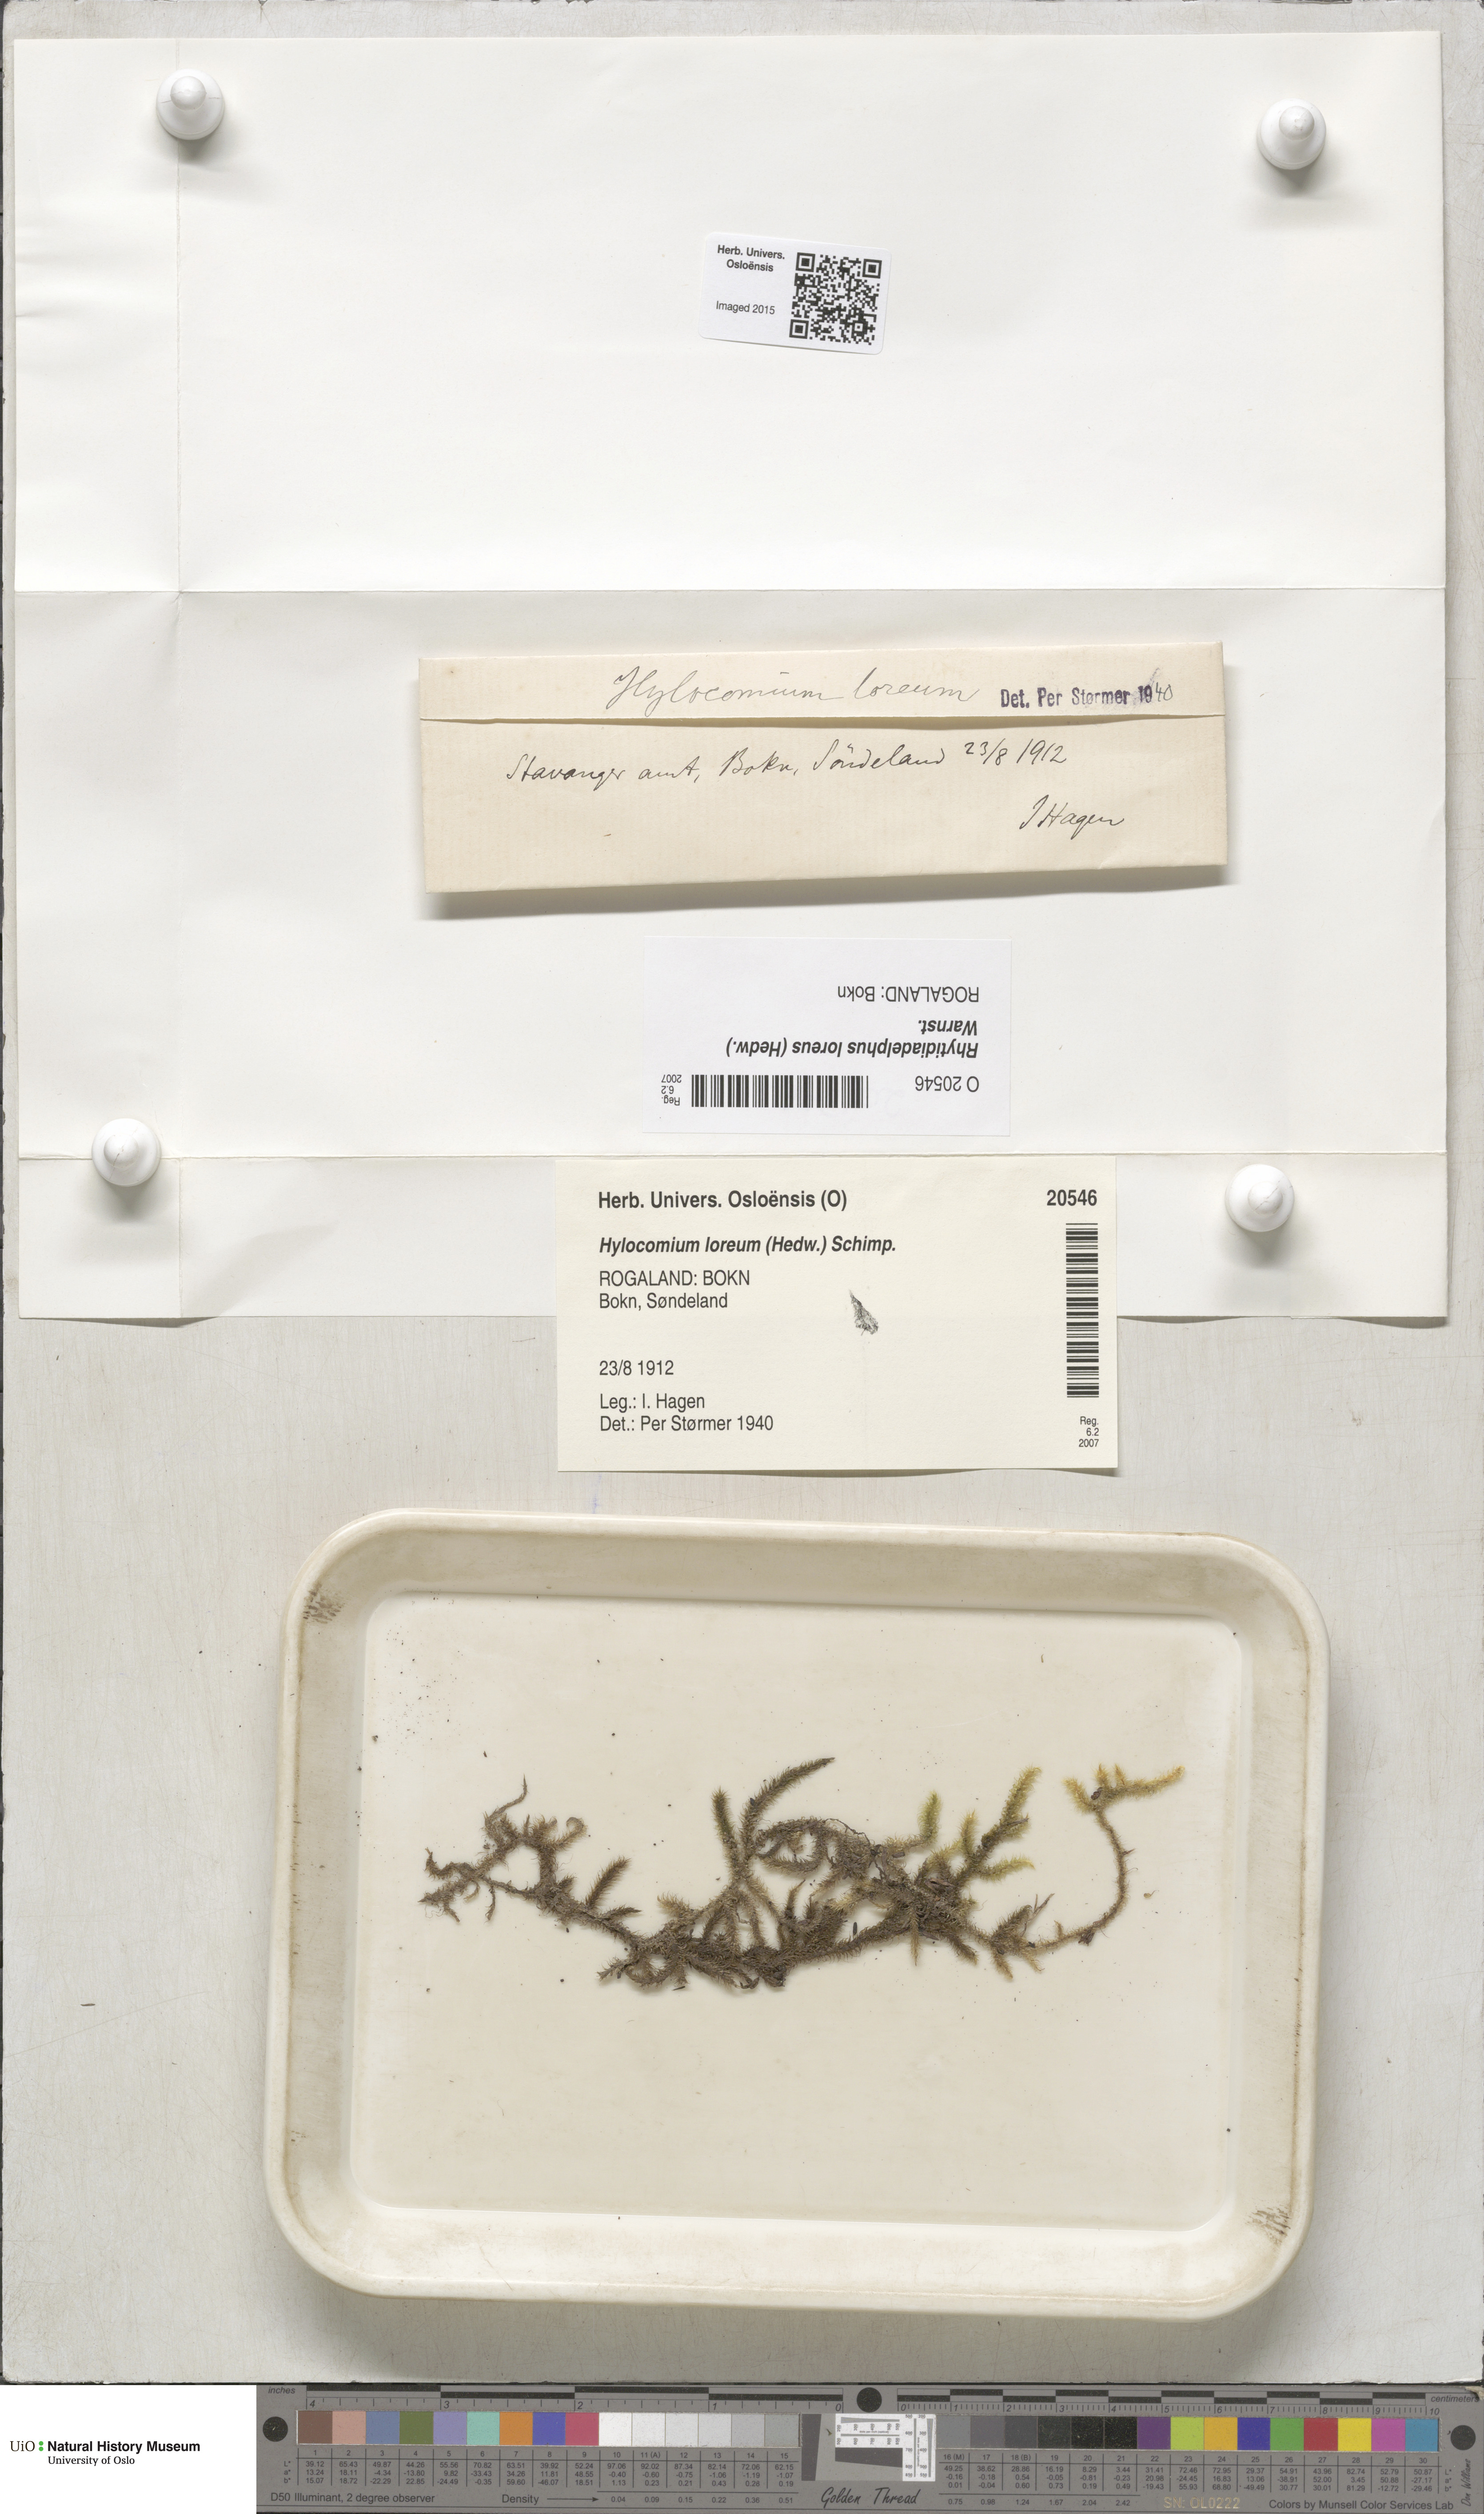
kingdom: Plantae
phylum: Bryophyta
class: Bryopsida
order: Hypnales
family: Hylocomiaceae
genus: Rhytidiadelphus
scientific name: Rhytidiadelphus loreus
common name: Lanky moss
